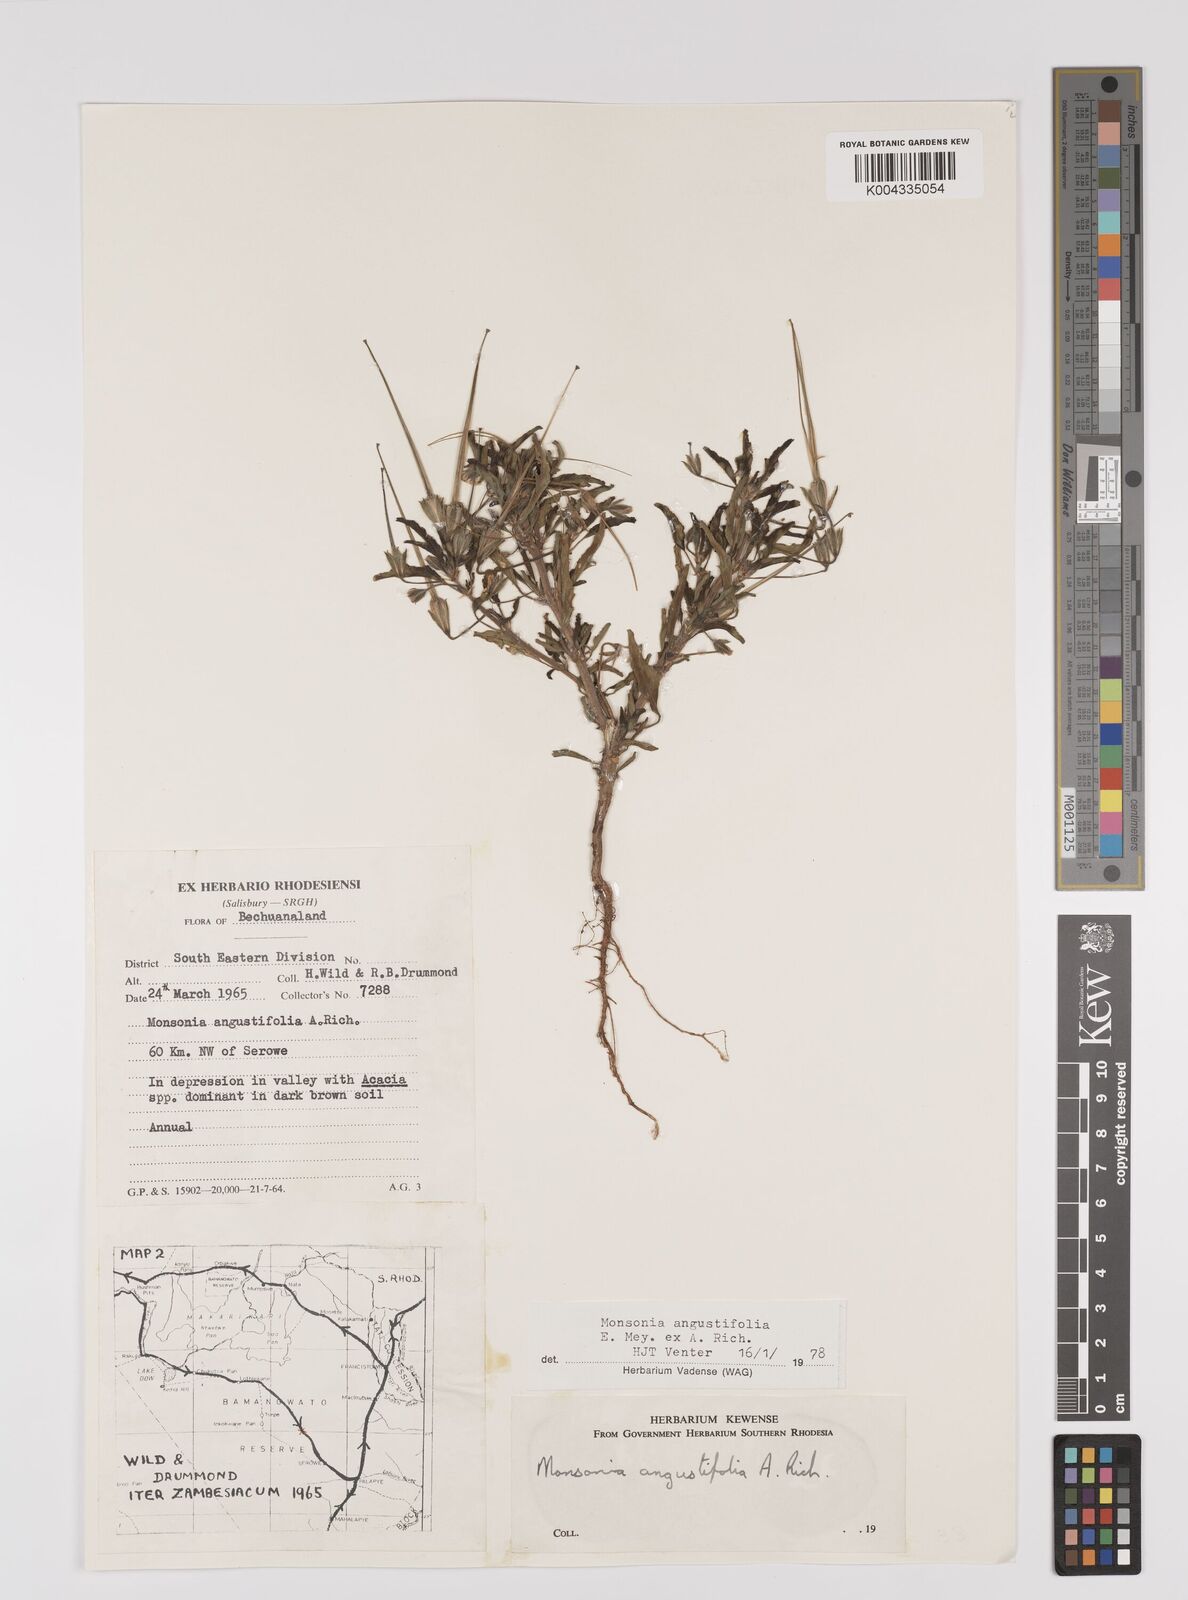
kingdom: Plantae
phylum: Tracheophyta
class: Magnoliopsida
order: Geraniales
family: Geraniaceae
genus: Monsonia
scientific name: Monsonia angustifolia
